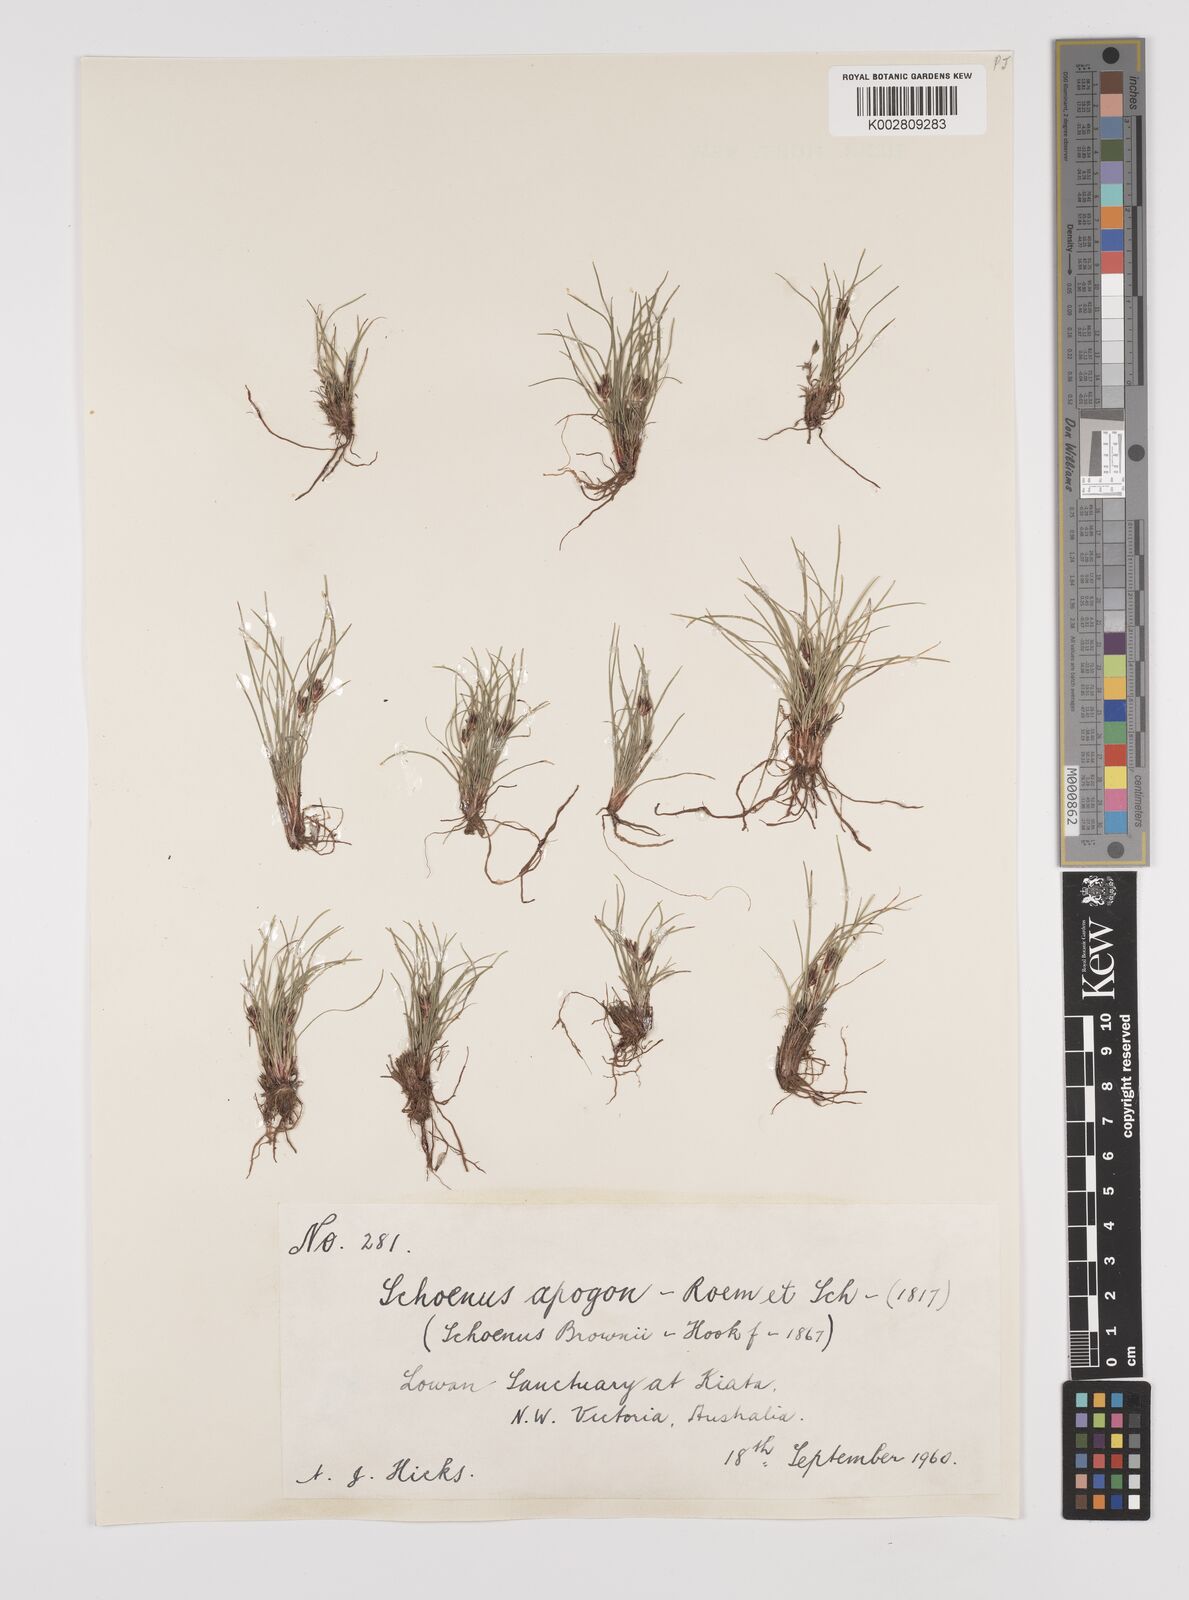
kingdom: Plantae
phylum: Tracheophyta
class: Liliopsida
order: Poales
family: Cyperaceae
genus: Schoenus
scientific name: Schoenus apogon
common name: Smooth bogrush
